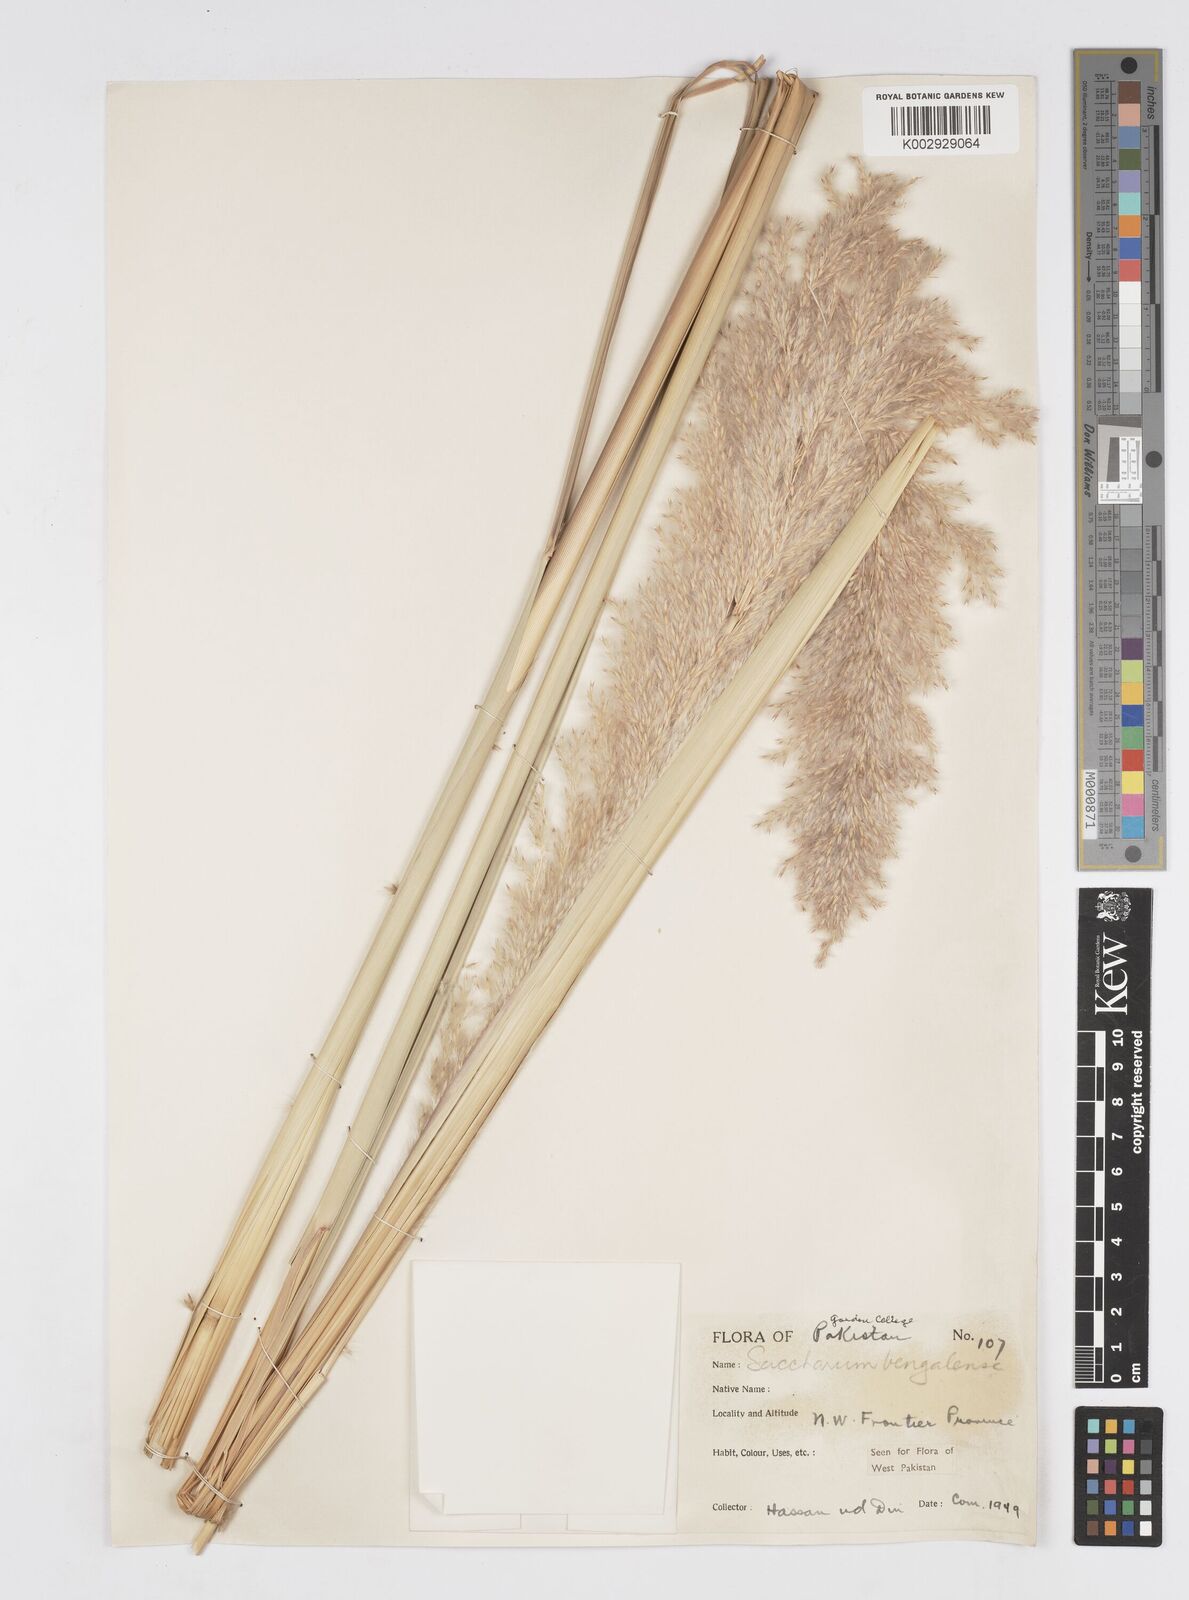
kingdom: Plantae
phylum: Tracheophyta
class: Liliopsida
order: Poales
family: Poaceae
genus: Tripidium
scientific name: Tripidium bengalense
